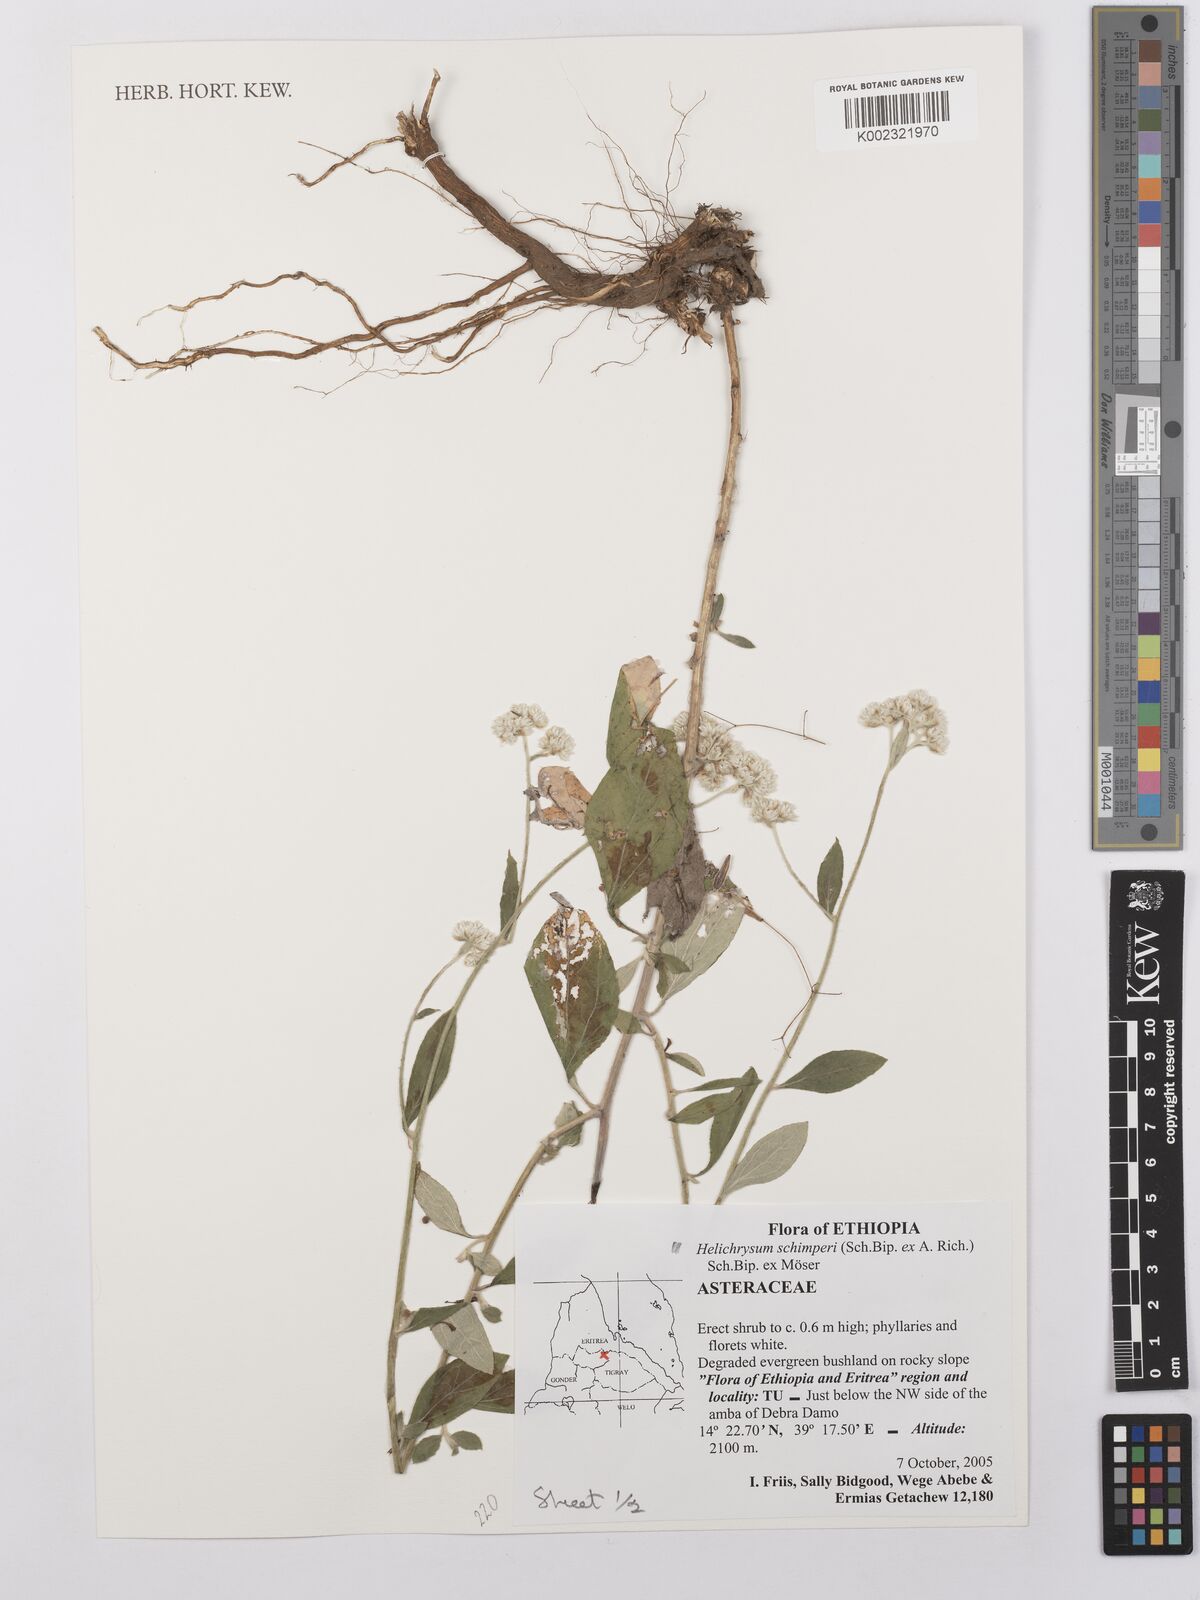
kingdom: Plantae
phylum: Tracheophyta
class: Magnoliopsida
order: Asterales
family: Asteraceae
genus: Helichrysum
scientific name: Helichrysum schimperi
